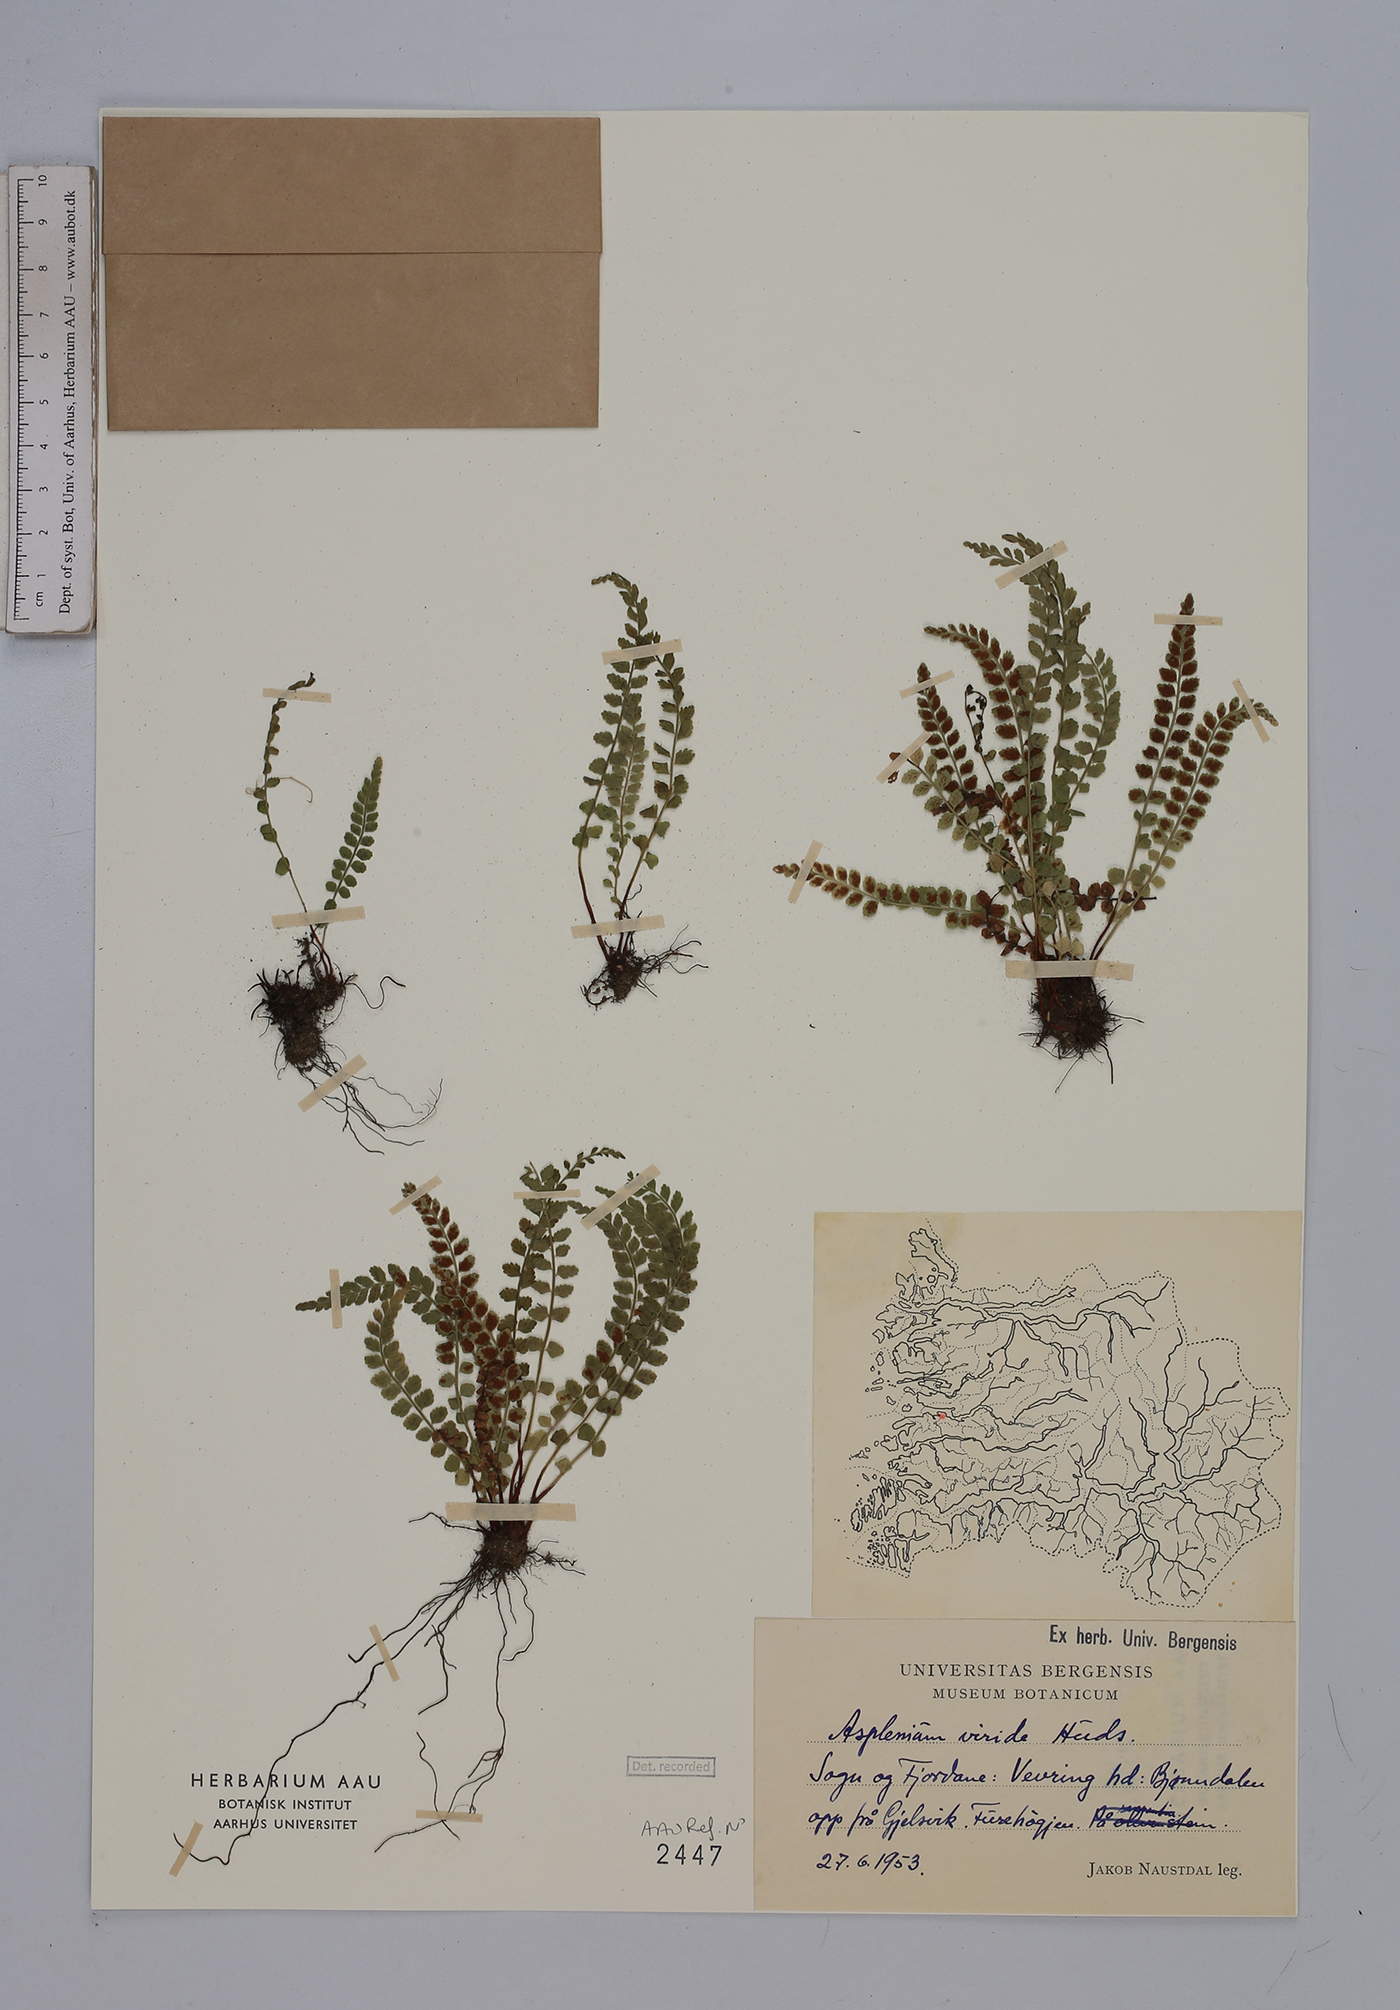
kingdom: Plantae
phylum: Tracheophyta
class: Polypodiopsida
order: Polypodiales
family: Aspleniaceae
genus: Asplenium
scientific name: Asplenium viride
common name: Green spleenwort
